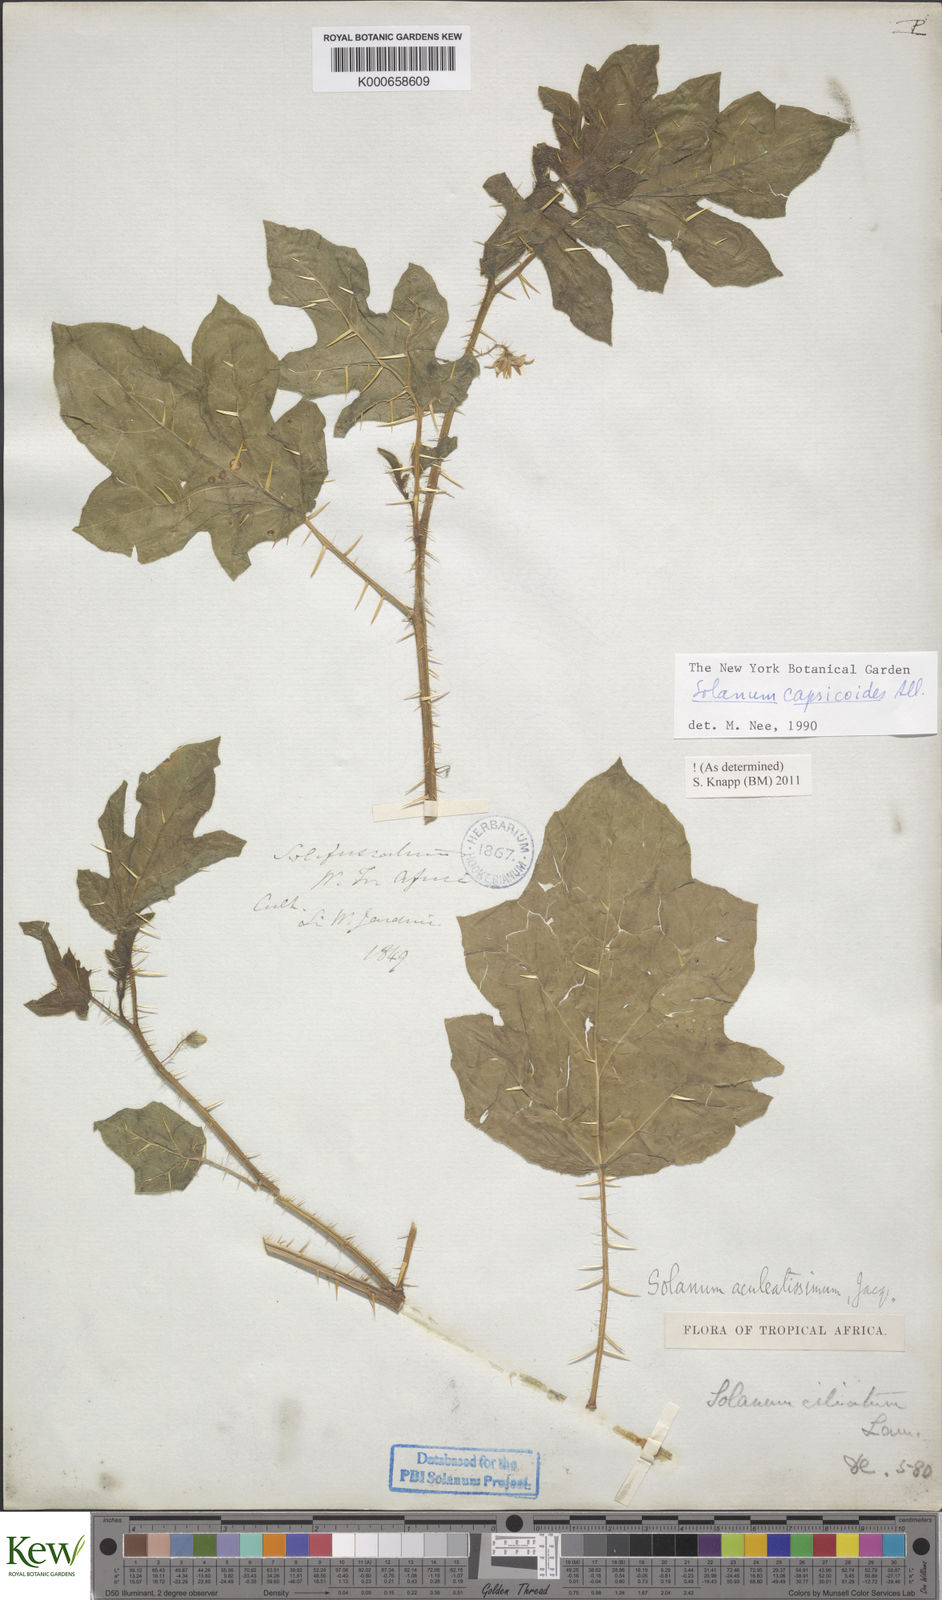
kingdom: Plantae
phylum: Tracheophyta
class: Magnoliopsida
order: Solanales
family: Solanaceae
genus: Solanum
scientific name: Solanum capsicoides
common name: Cockroach berry
